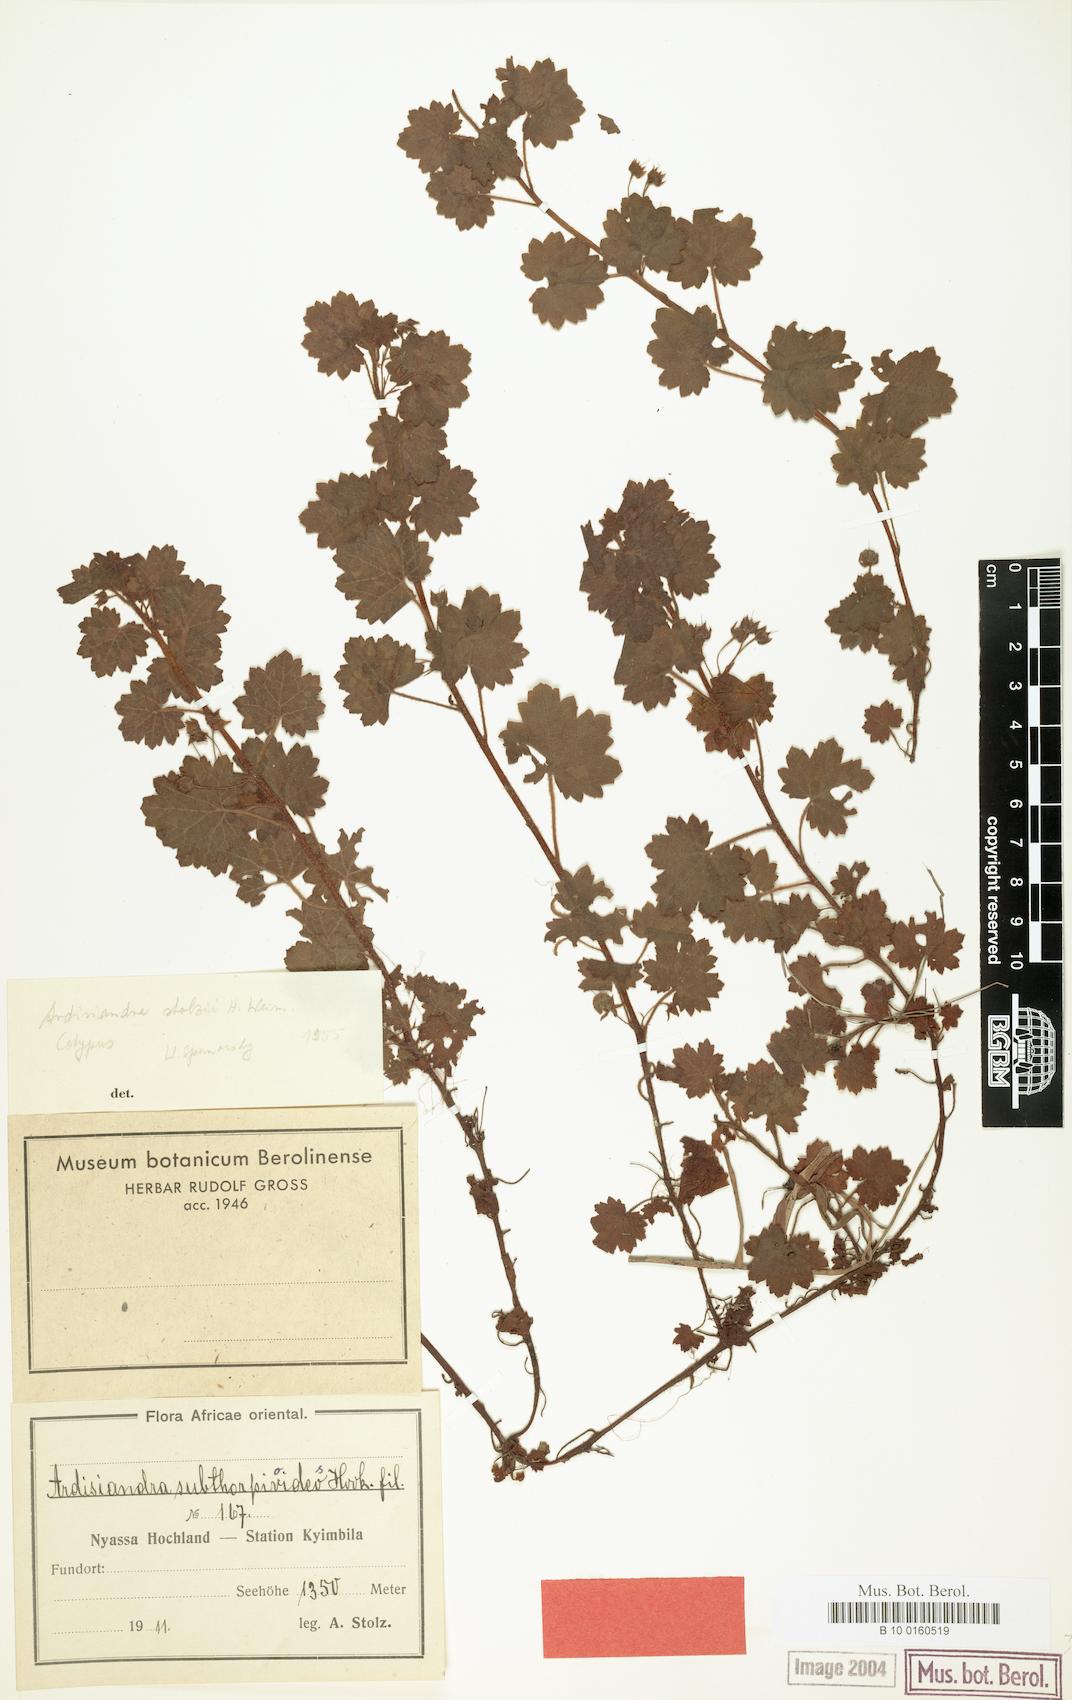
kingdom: Plantae
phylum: Tracheophyta
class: Magnoliopsida
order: Ericales
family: Primulaceae
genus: Ardisiandra
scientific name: Ardisiandra wettsteinii
